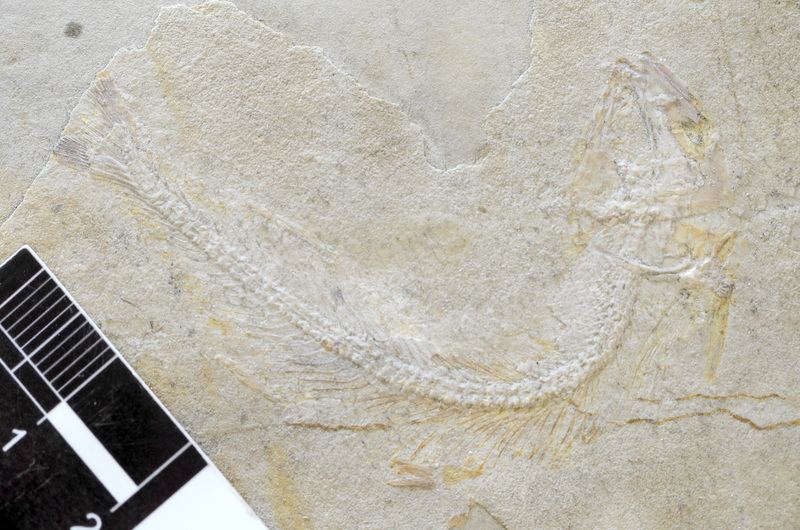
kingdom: Animalia
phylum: Chordata
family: Allothrissopidae
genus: Allothrissops
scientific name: Allothrissops regleyi
